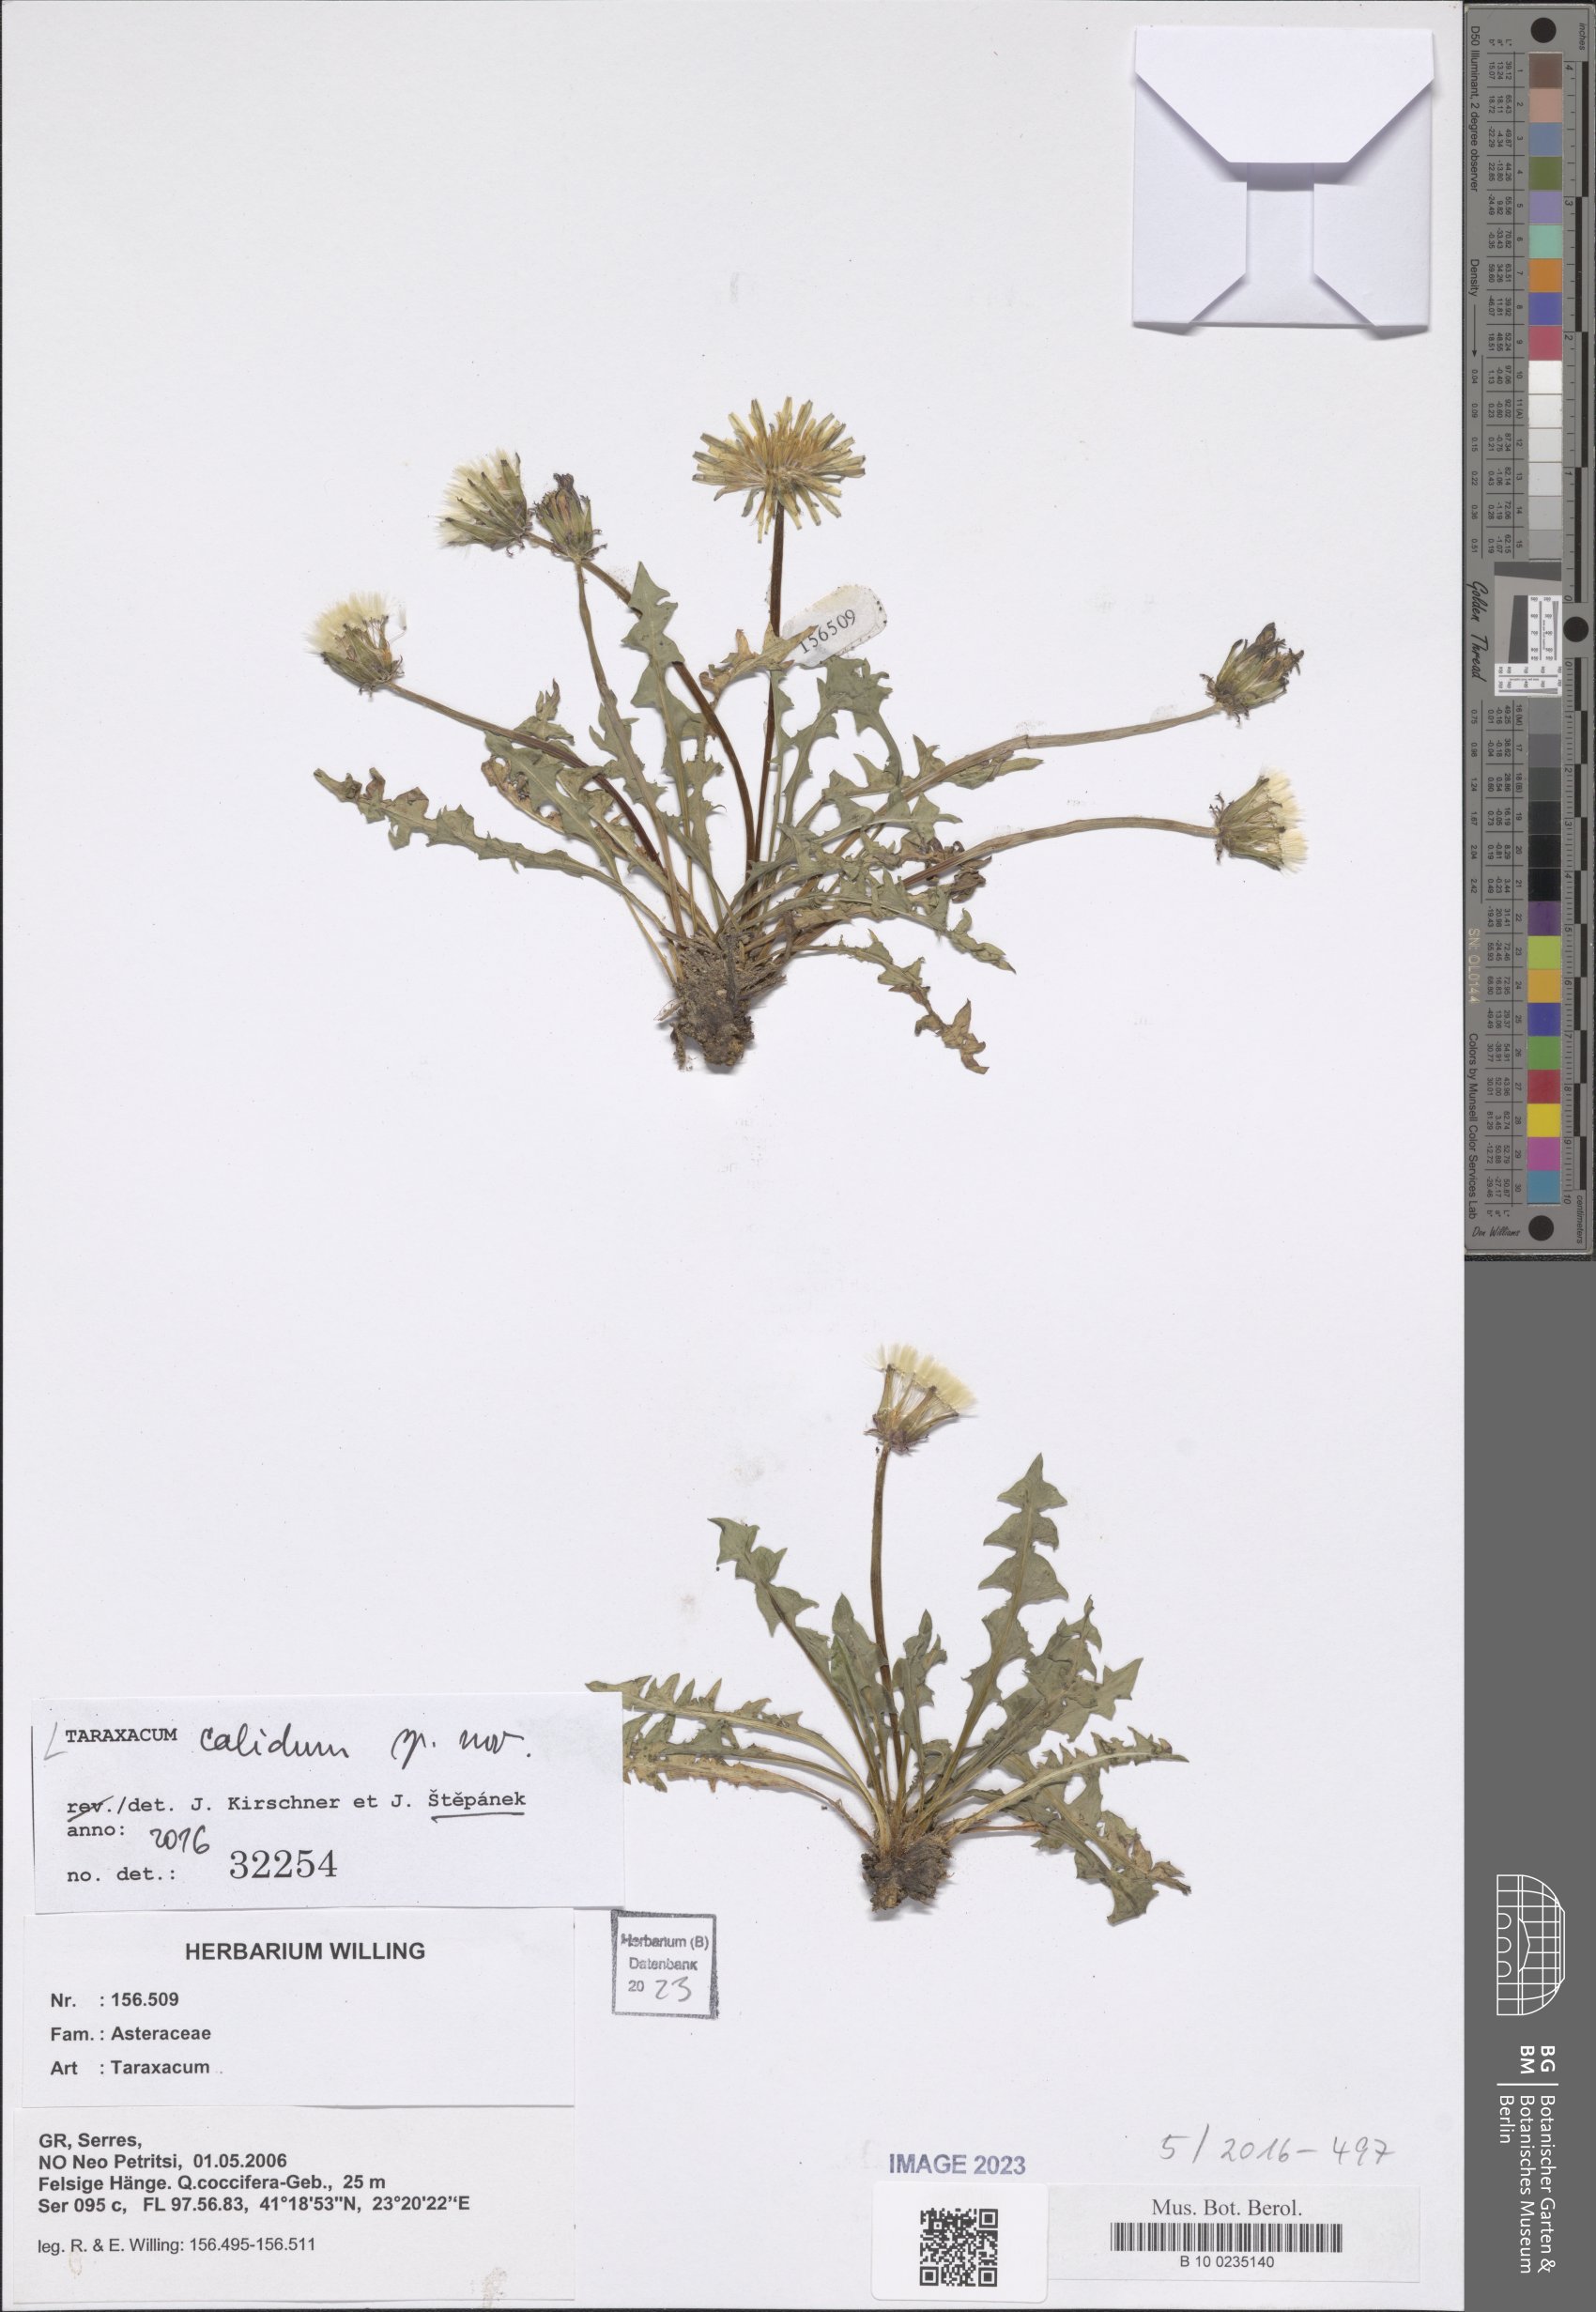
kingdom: Plantae
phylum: Tracheophyta
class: Magnoliopsida
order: Asterales
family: Asteraceae
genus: Taraxacum
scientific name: Taraxacum
